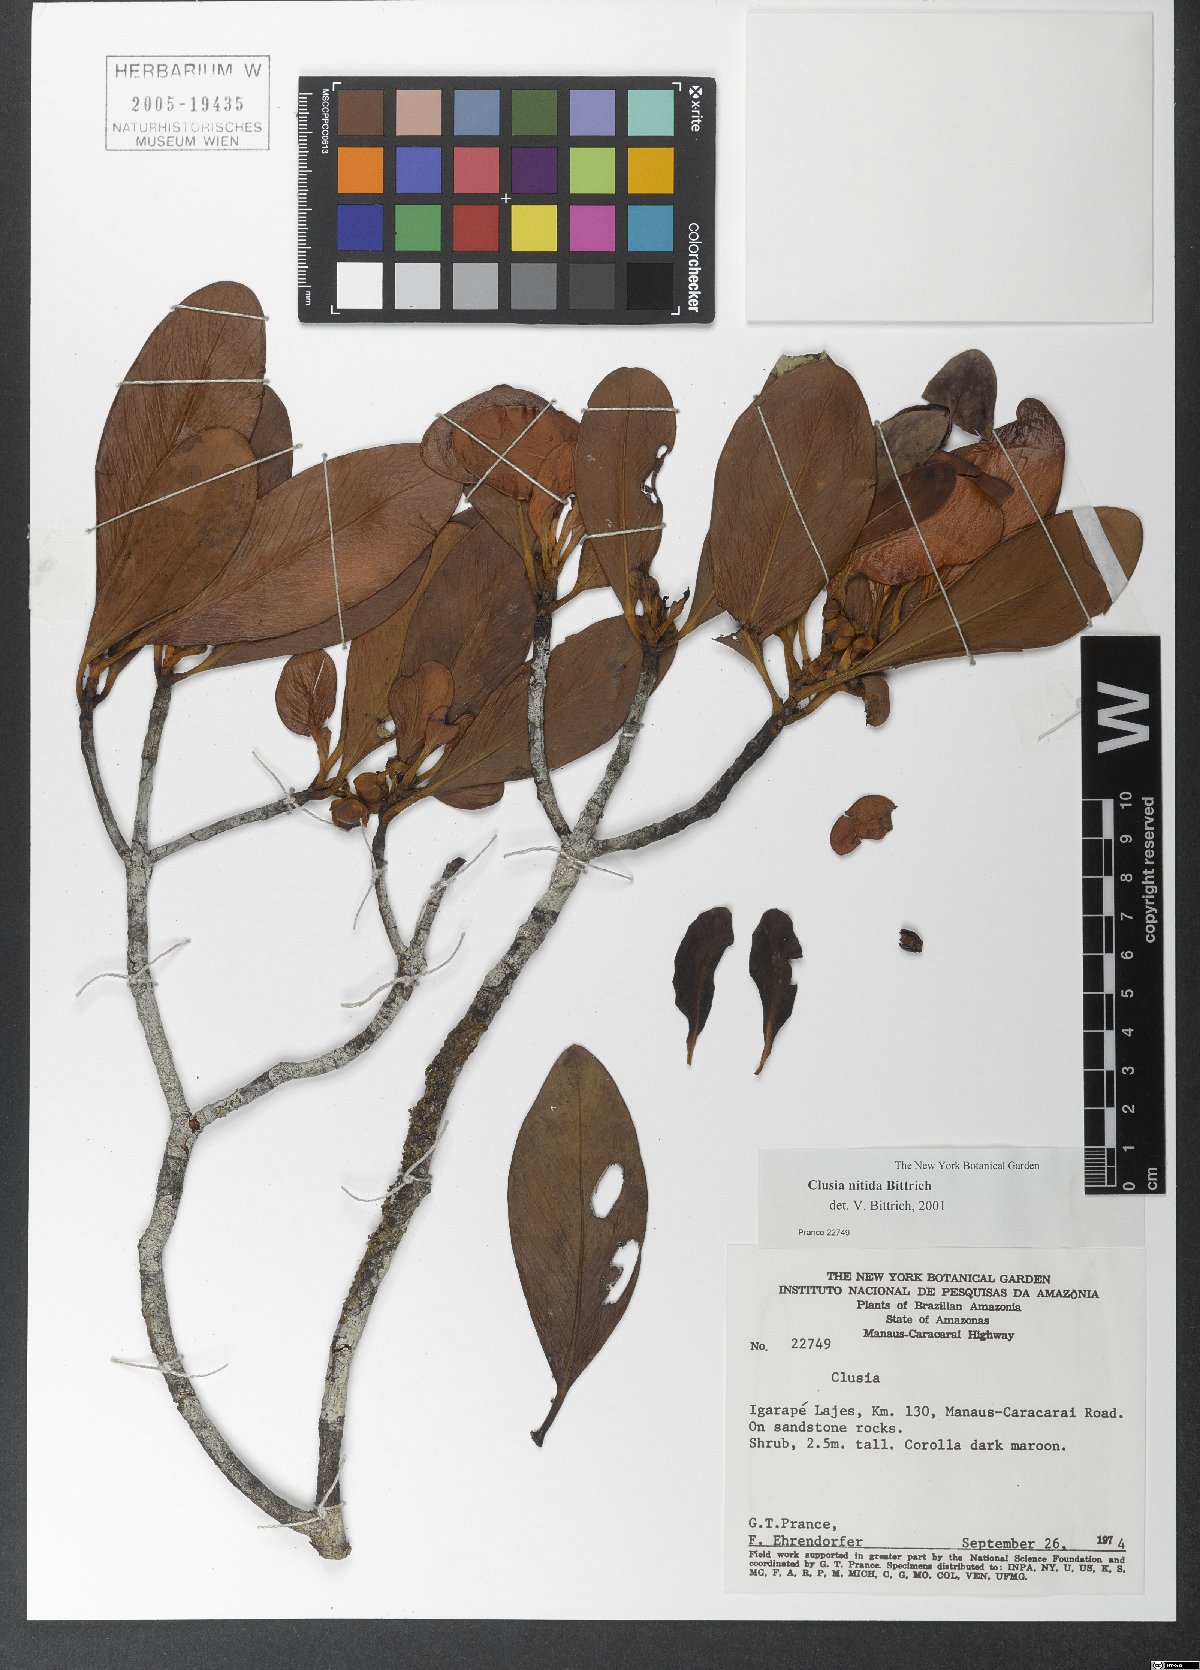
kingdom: Plantae
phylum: Tracheophyta
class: Magnoliopsida
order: Malpighiales
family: Clusiaceae
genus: Clusia
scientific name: Clusia nitida
